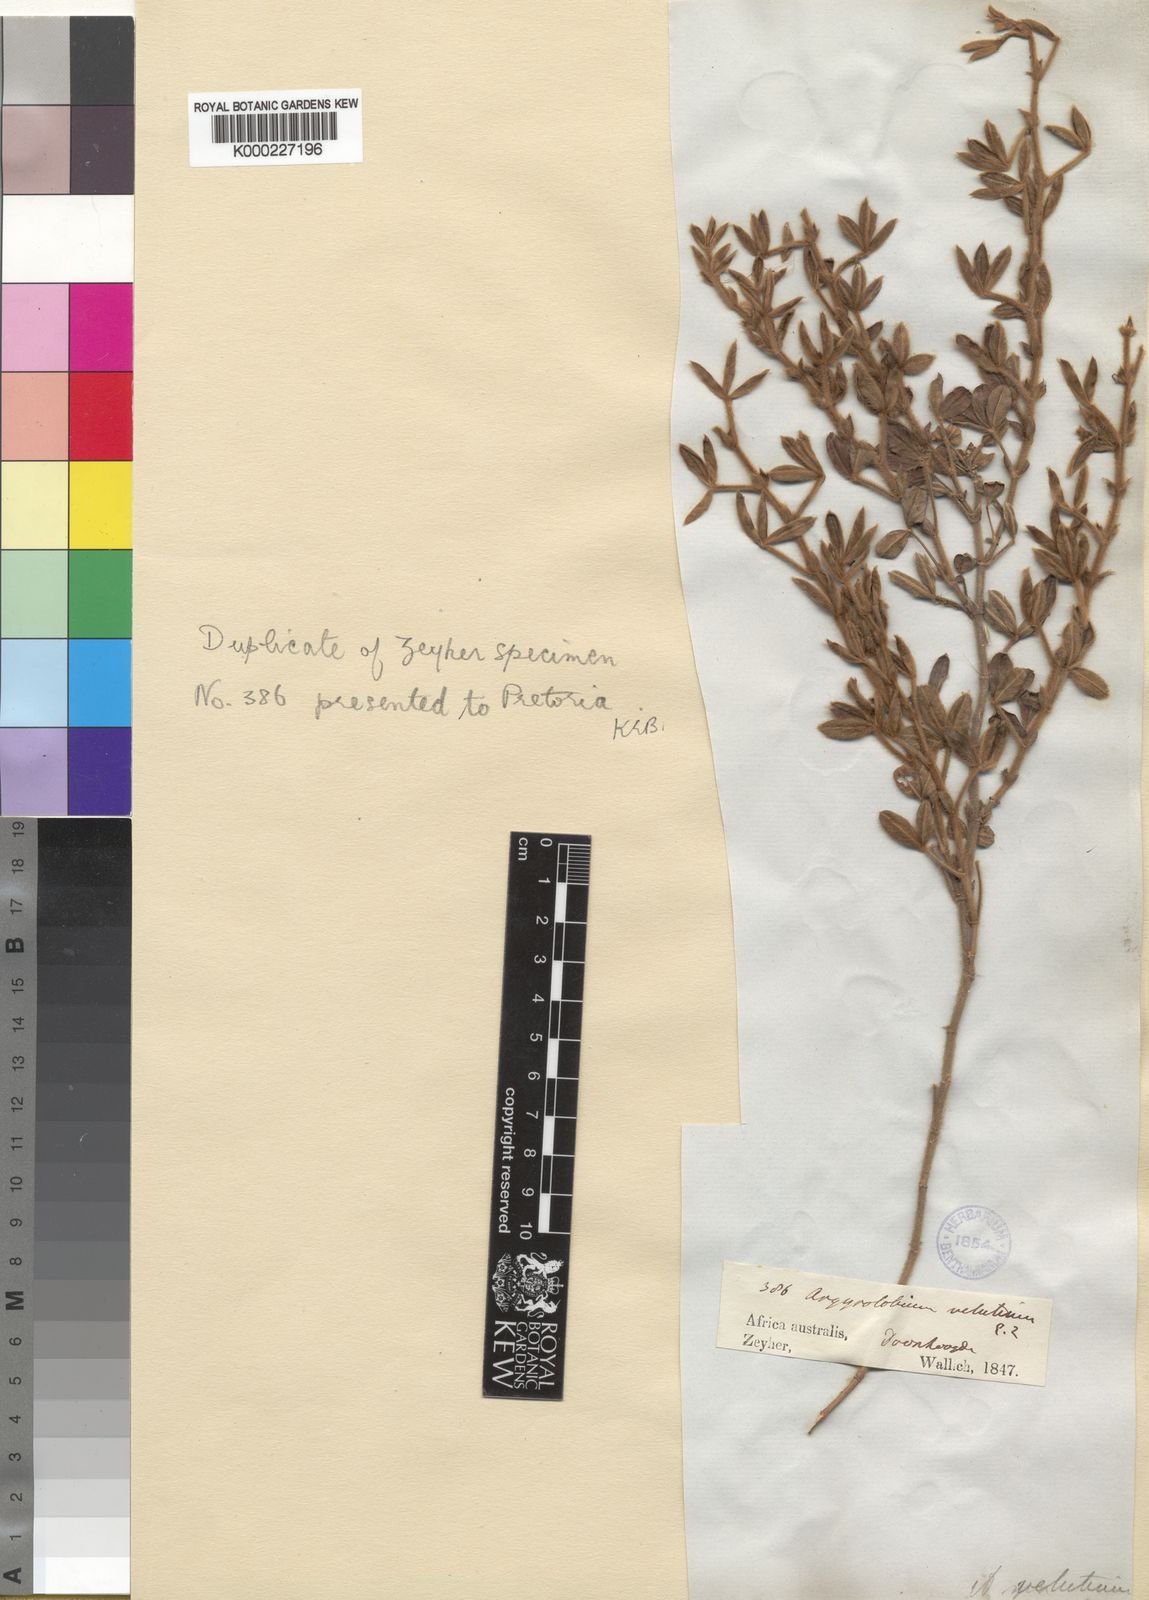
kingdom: Plantae
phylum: Tracheophyta
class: Magnoliopsida
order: Fabales
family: Fabaceae
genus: Argyrolobium
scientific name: Argyrolobium velutinum
